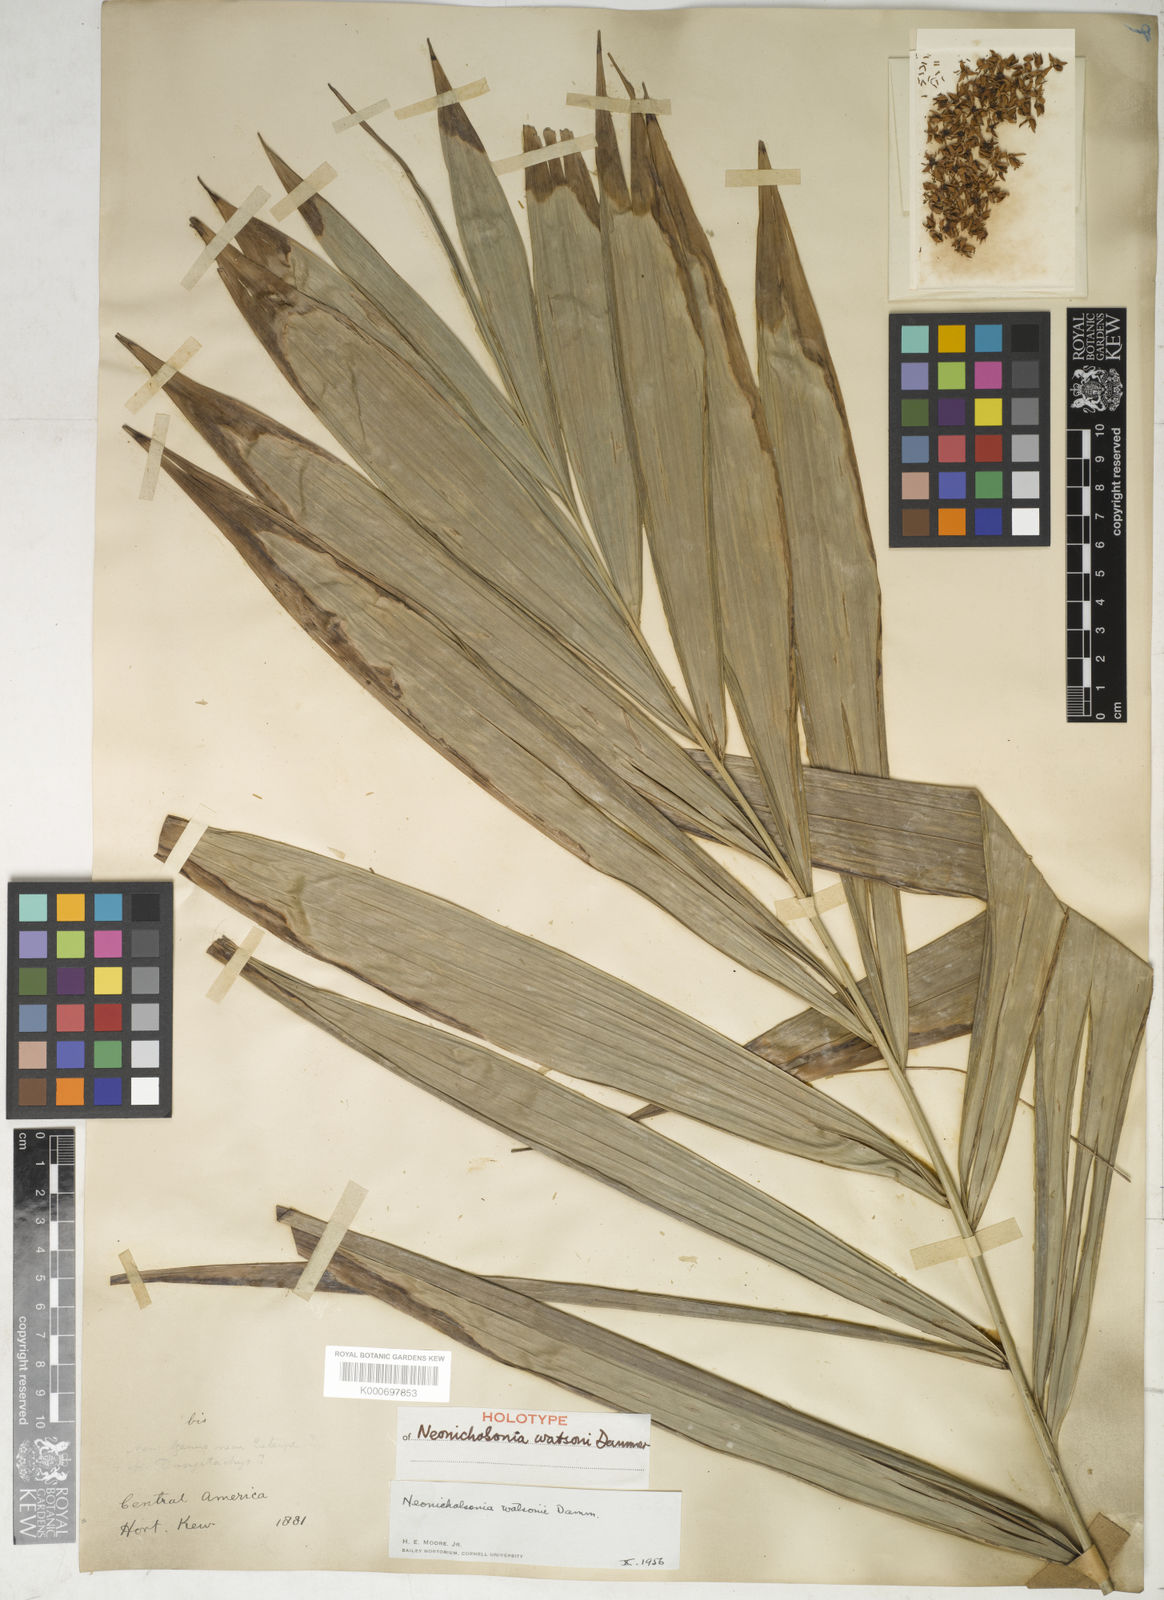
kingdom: Plantae
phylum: Tracheophyta
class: Liliopsida
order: Arecales
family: Arecaceae
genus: Neonicholsonia
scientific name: Neonicholsonia watsonii
